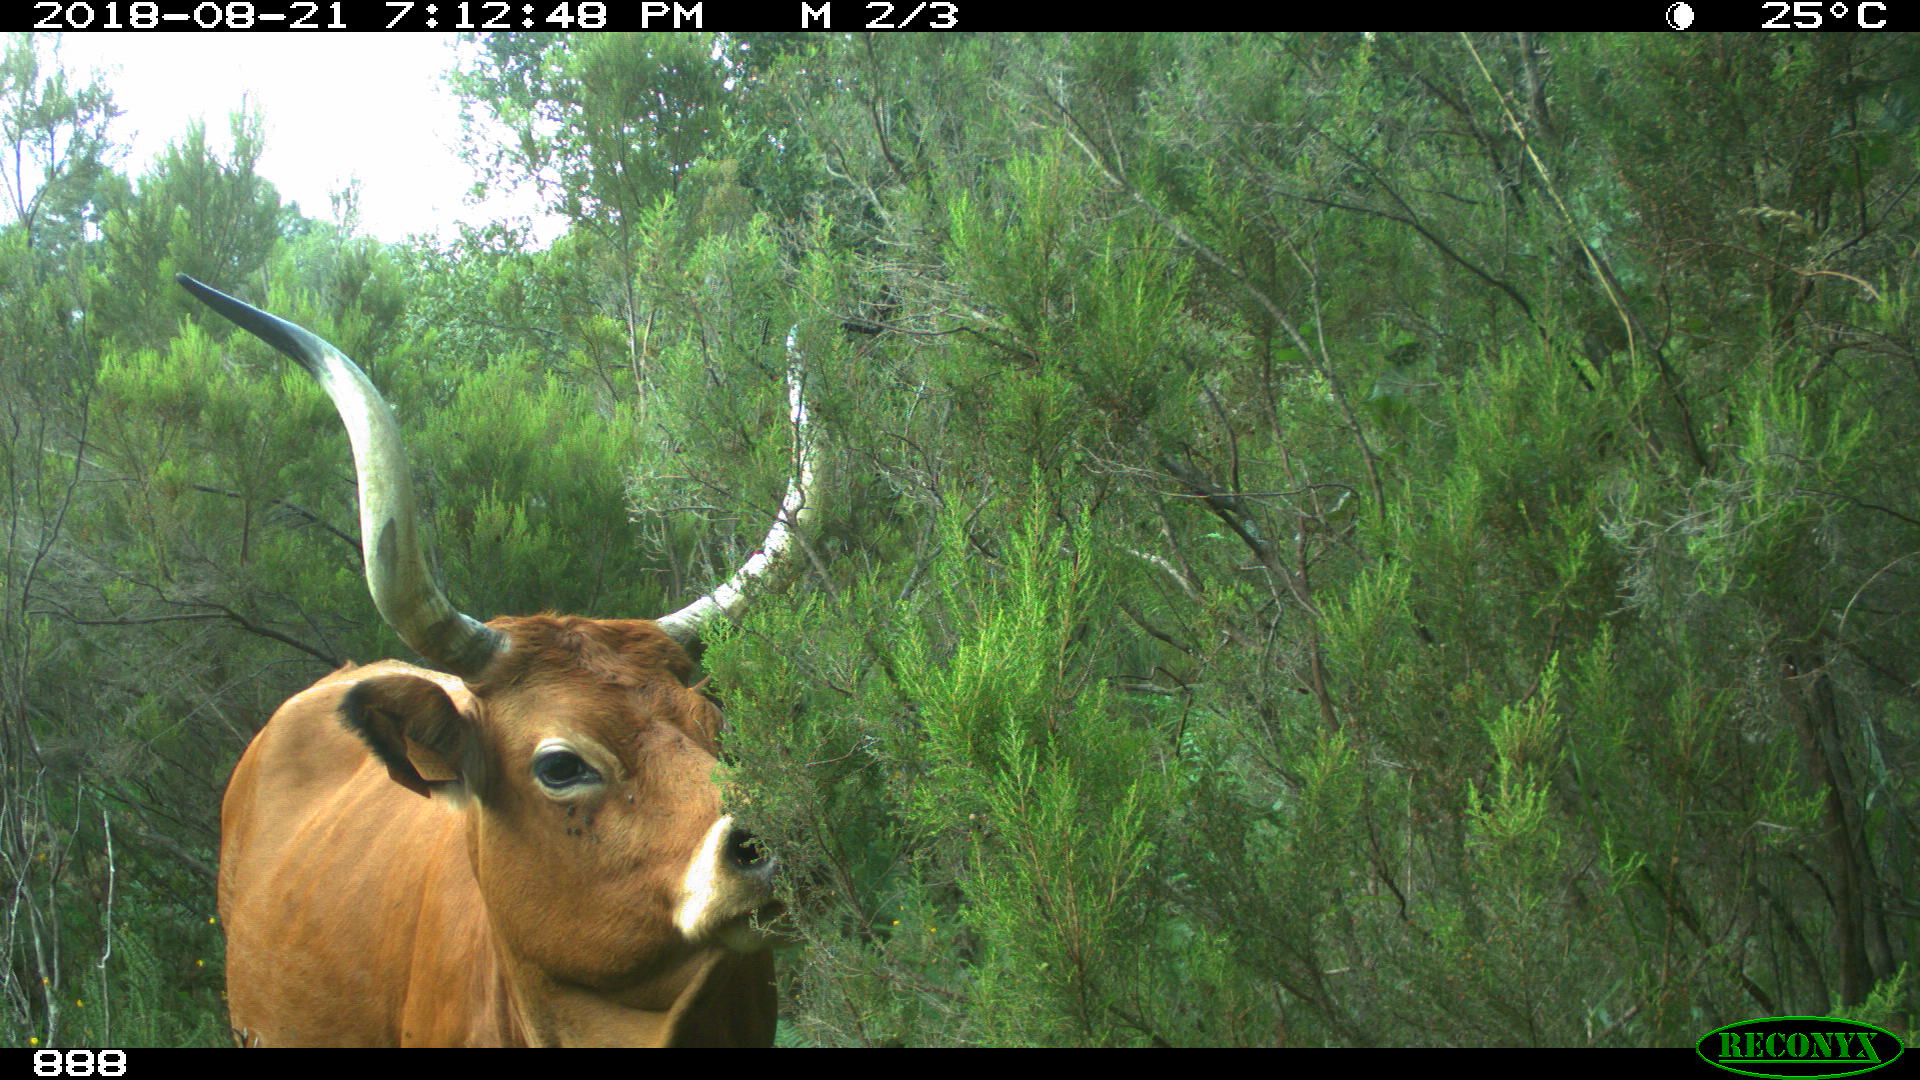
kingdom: Animalia
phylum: Chordata
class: Mammalia
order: Artiodactyla
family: Bovidae
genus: Bos
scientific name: Bos taurus
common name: Domesticated cattle
